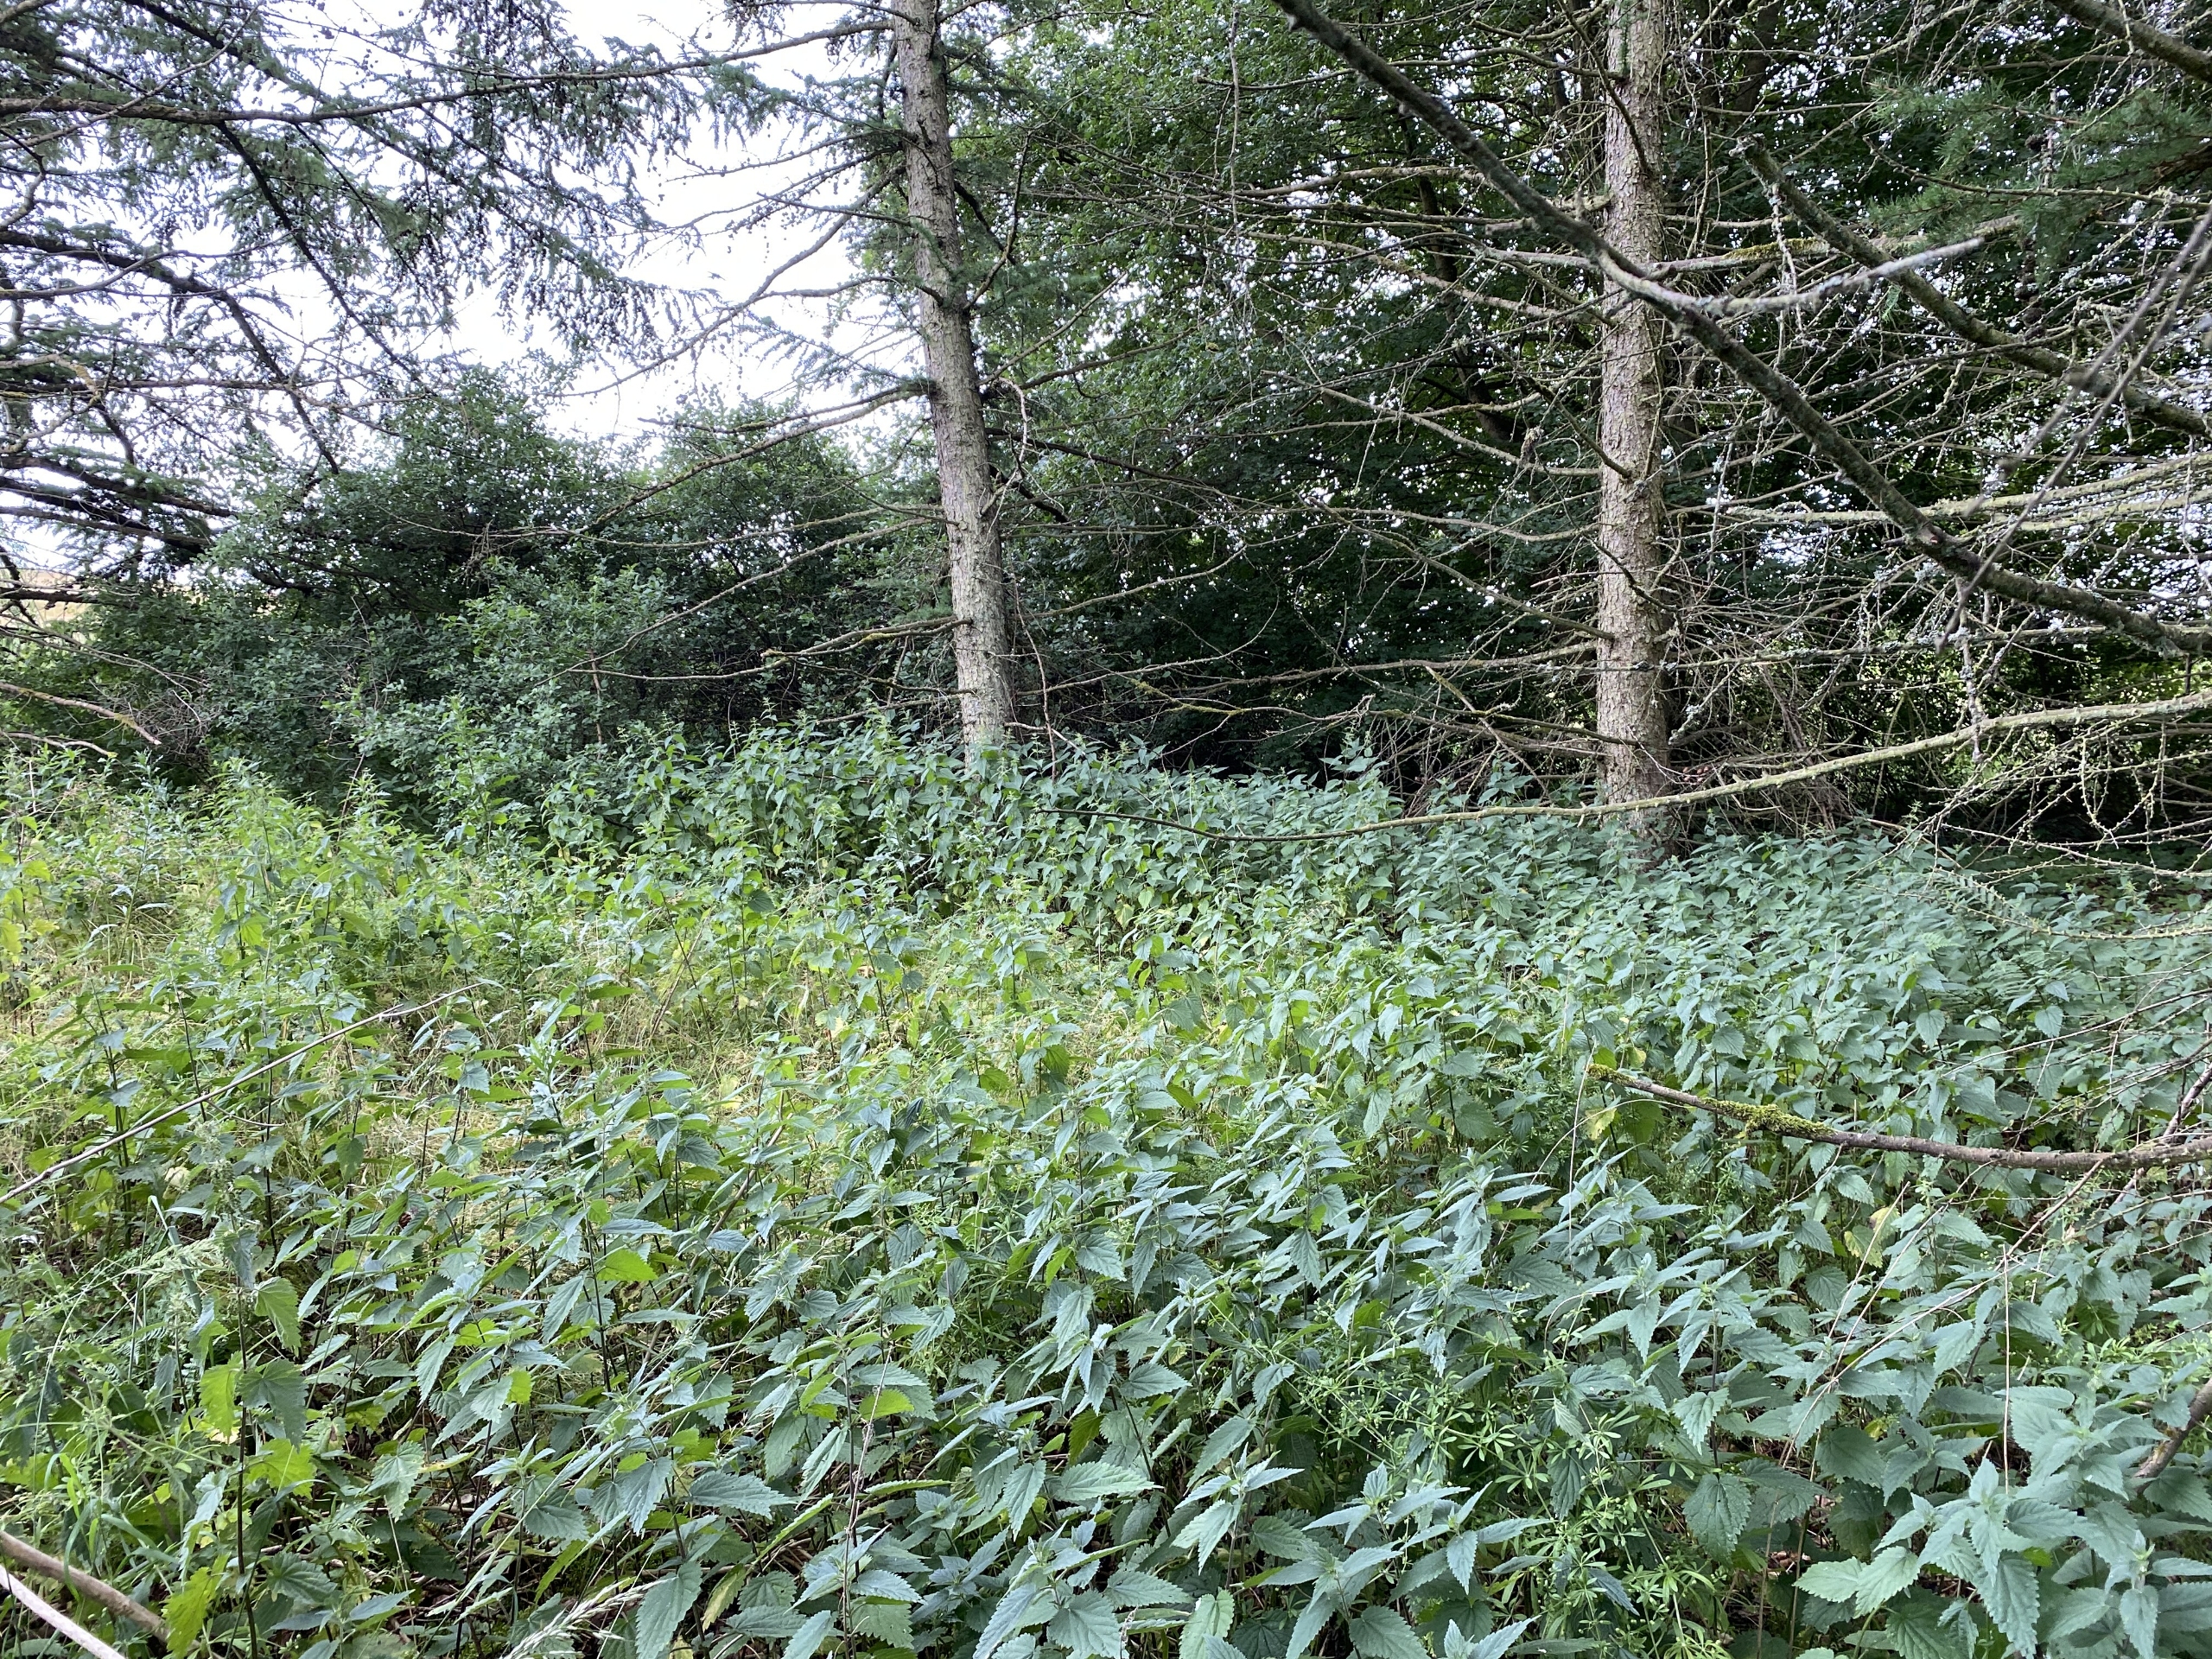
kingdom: Plantae
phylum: Tracheophyta
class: Magnoliopsida
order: Rosales
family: Urticaceae
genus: Urtica
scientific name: Urtica dioica
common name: Stor nælde
